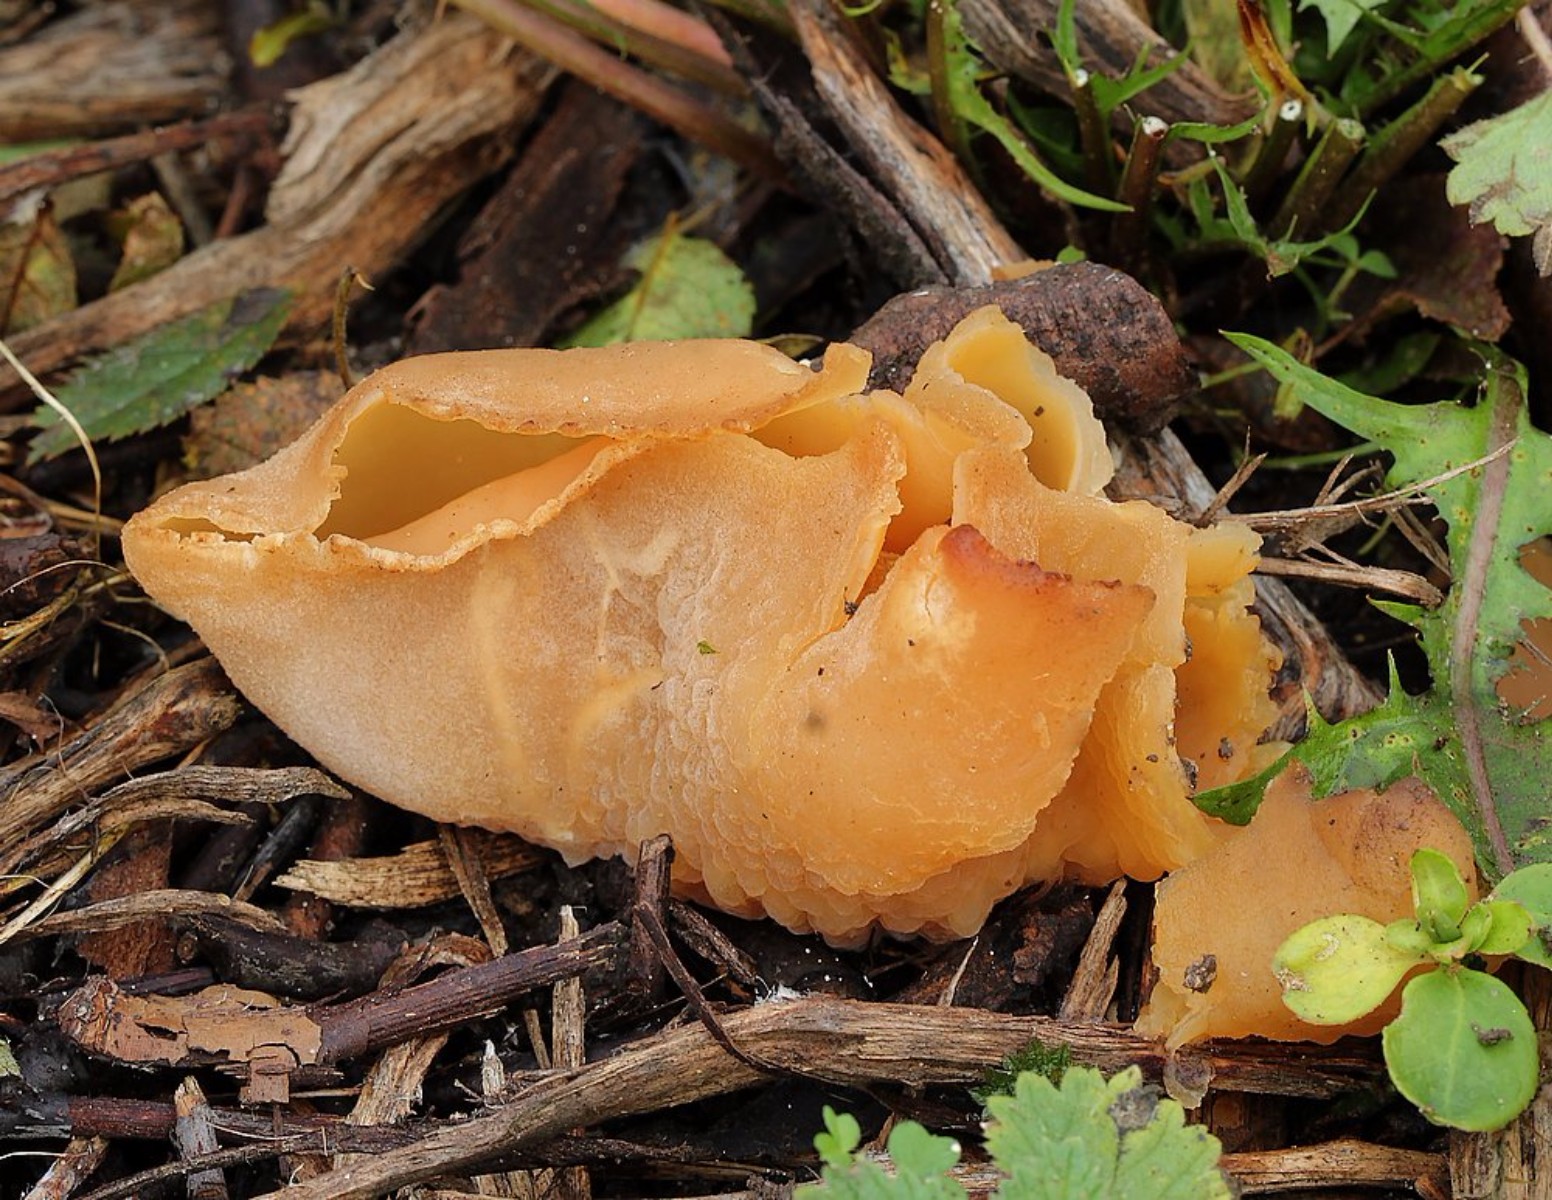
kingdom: Fungi
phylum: Ascomycota
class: Pezizomycetes
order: Pezizales
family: Pezizaceae
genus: Peziza
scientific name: Peziza
